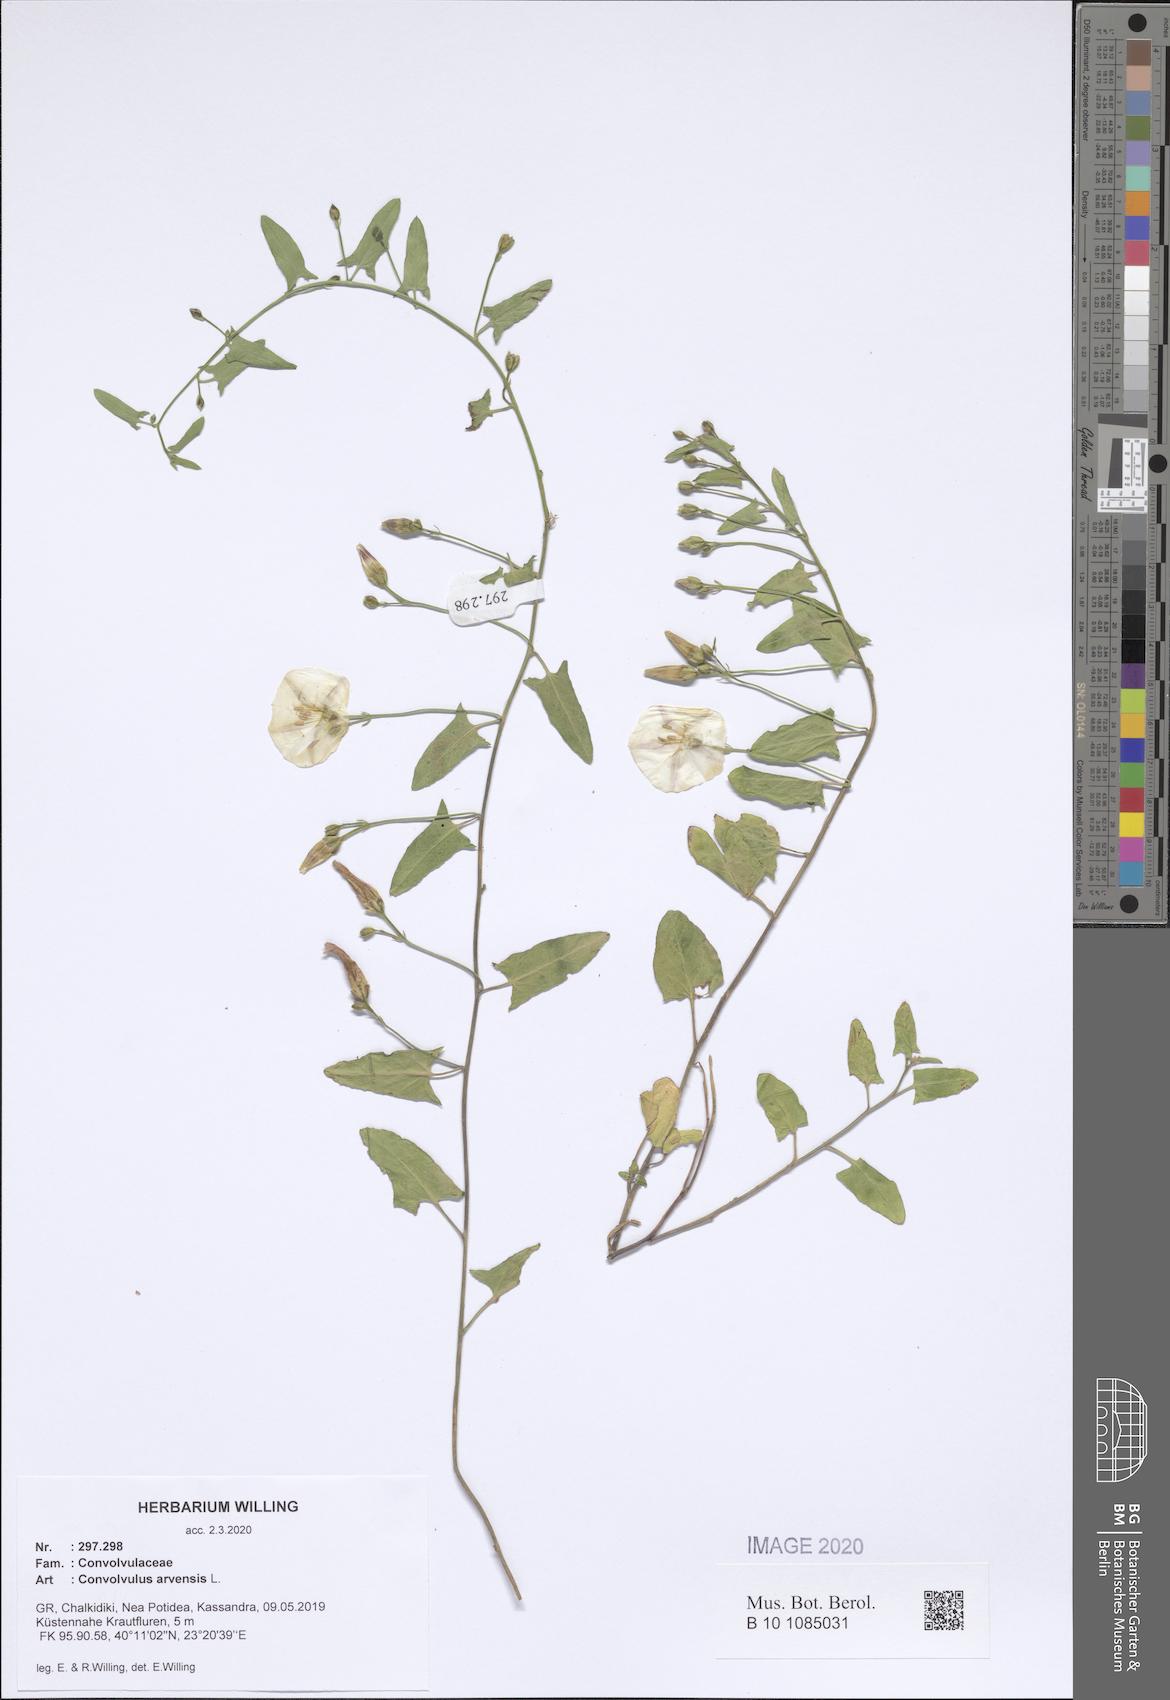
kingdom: Plantae
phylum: Tracheophyta
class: Magnoliopsida
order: Solanales
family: Convolvulaceae
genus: Convolvulus
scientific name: Convolvulus arvensis
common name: Field bindweed
